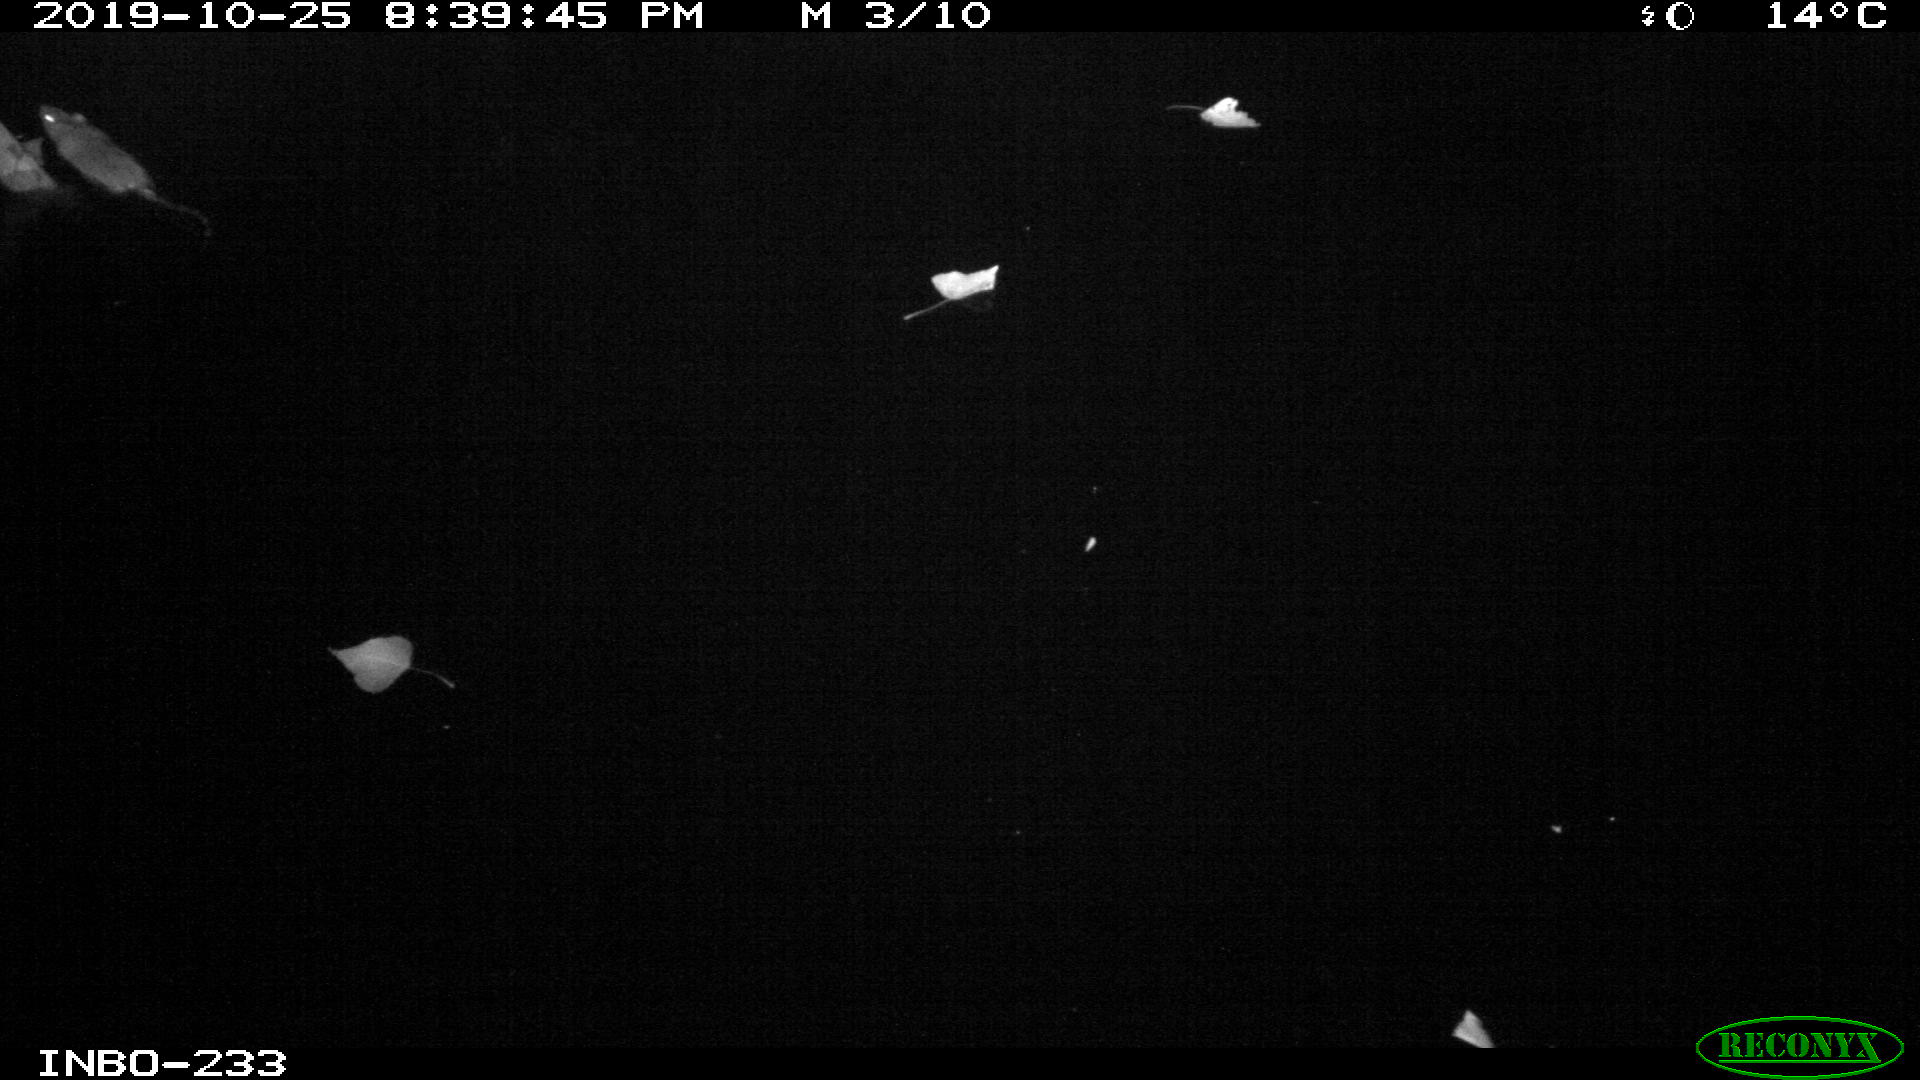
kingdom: Animalia
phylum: Chordata
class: Mammalia
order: Rodentia
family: Muridae
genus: Rattus
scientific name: Rattus norvegicus
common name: Brown rat
